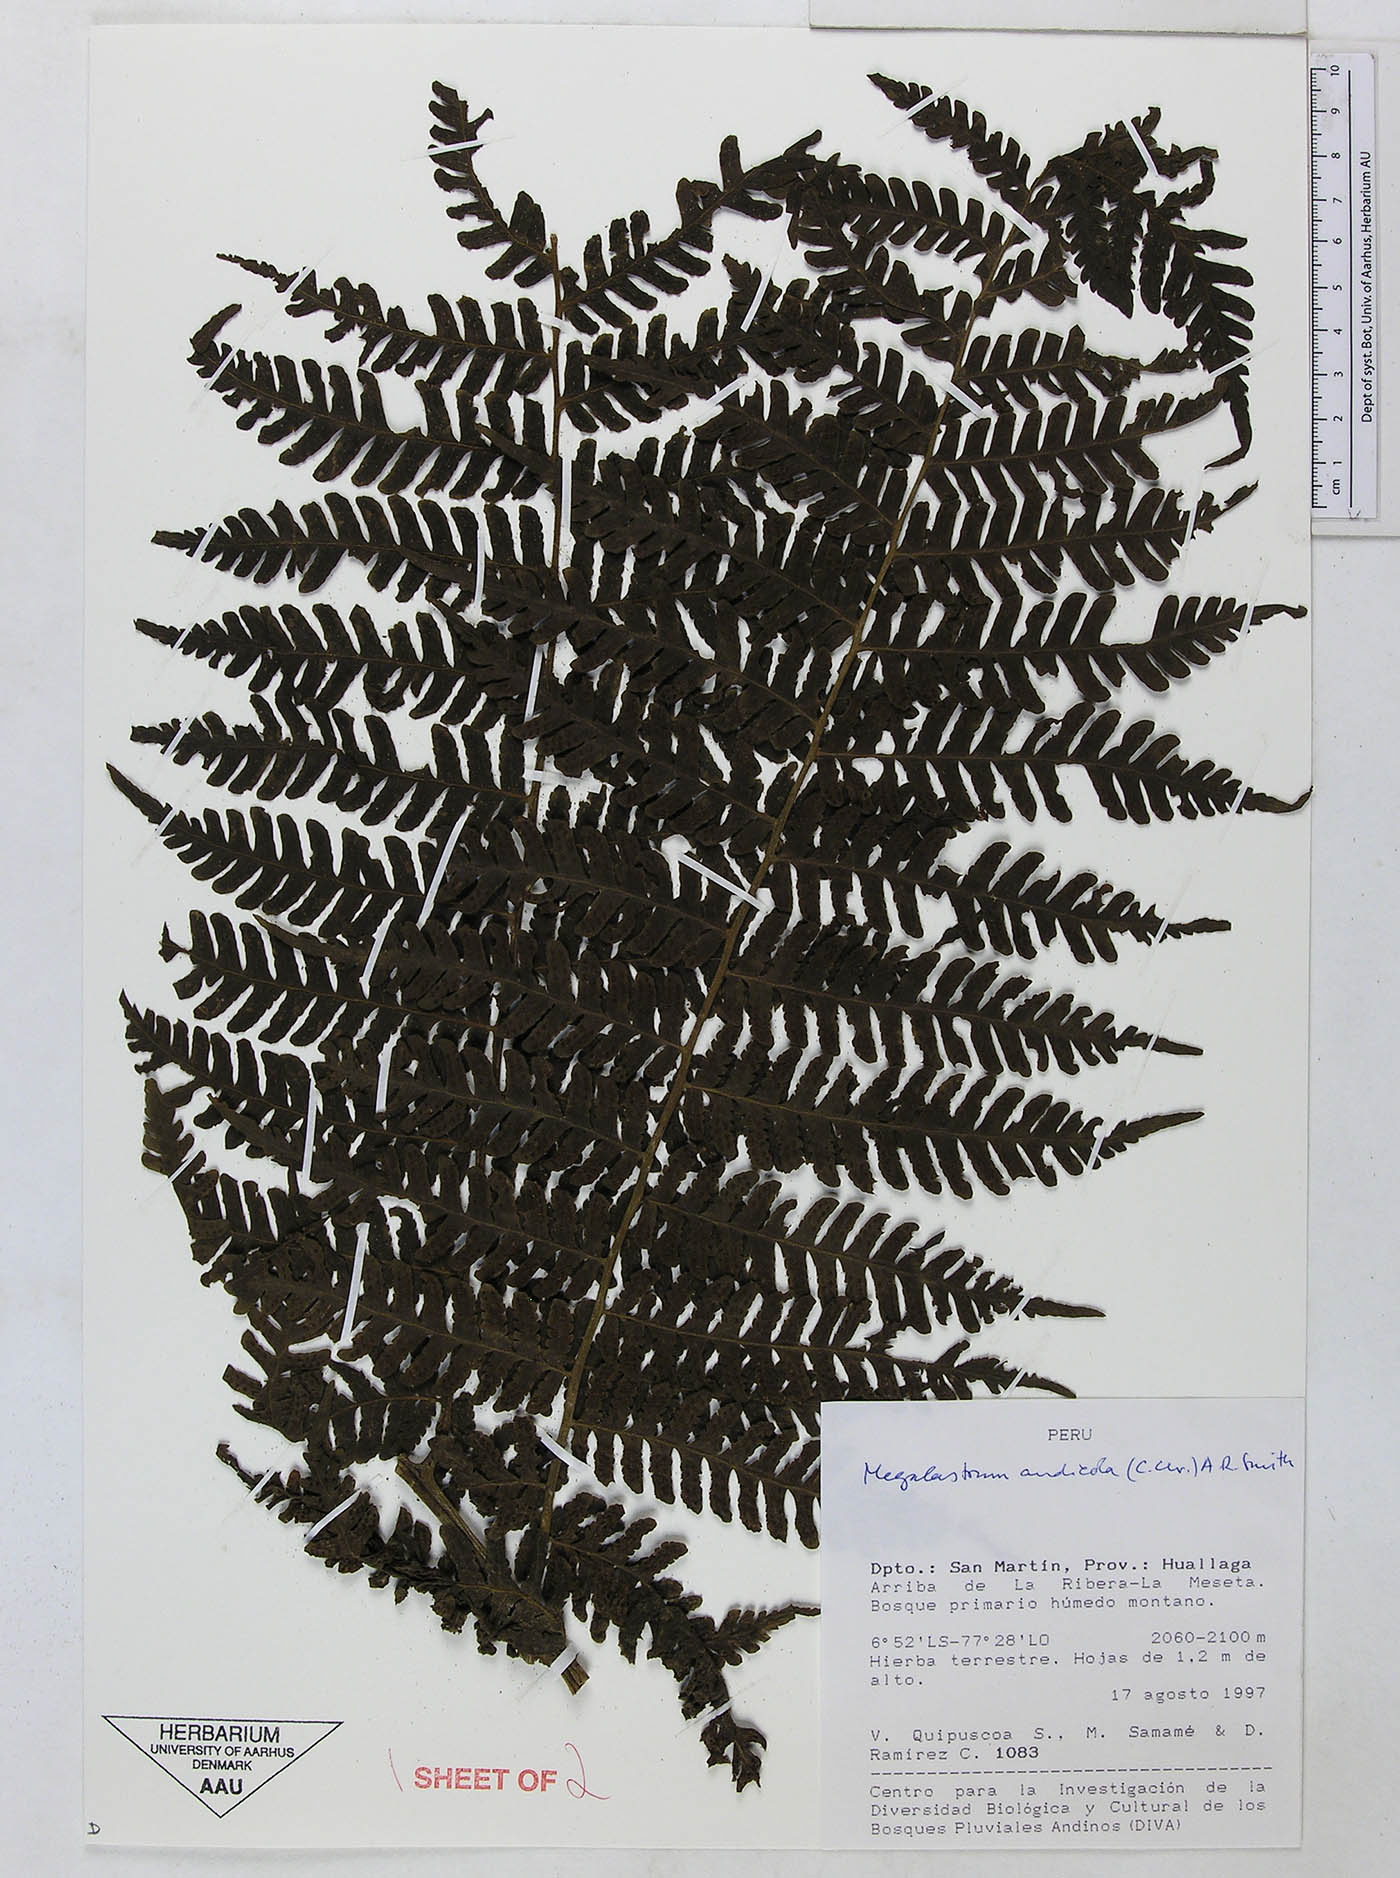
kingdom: Plantae
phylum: Tracheophyta
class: Polypodiopsida
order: Polypodiales
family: Dryopteridaceae
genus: Megalastrum
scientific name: Megalastrum acrosorum
